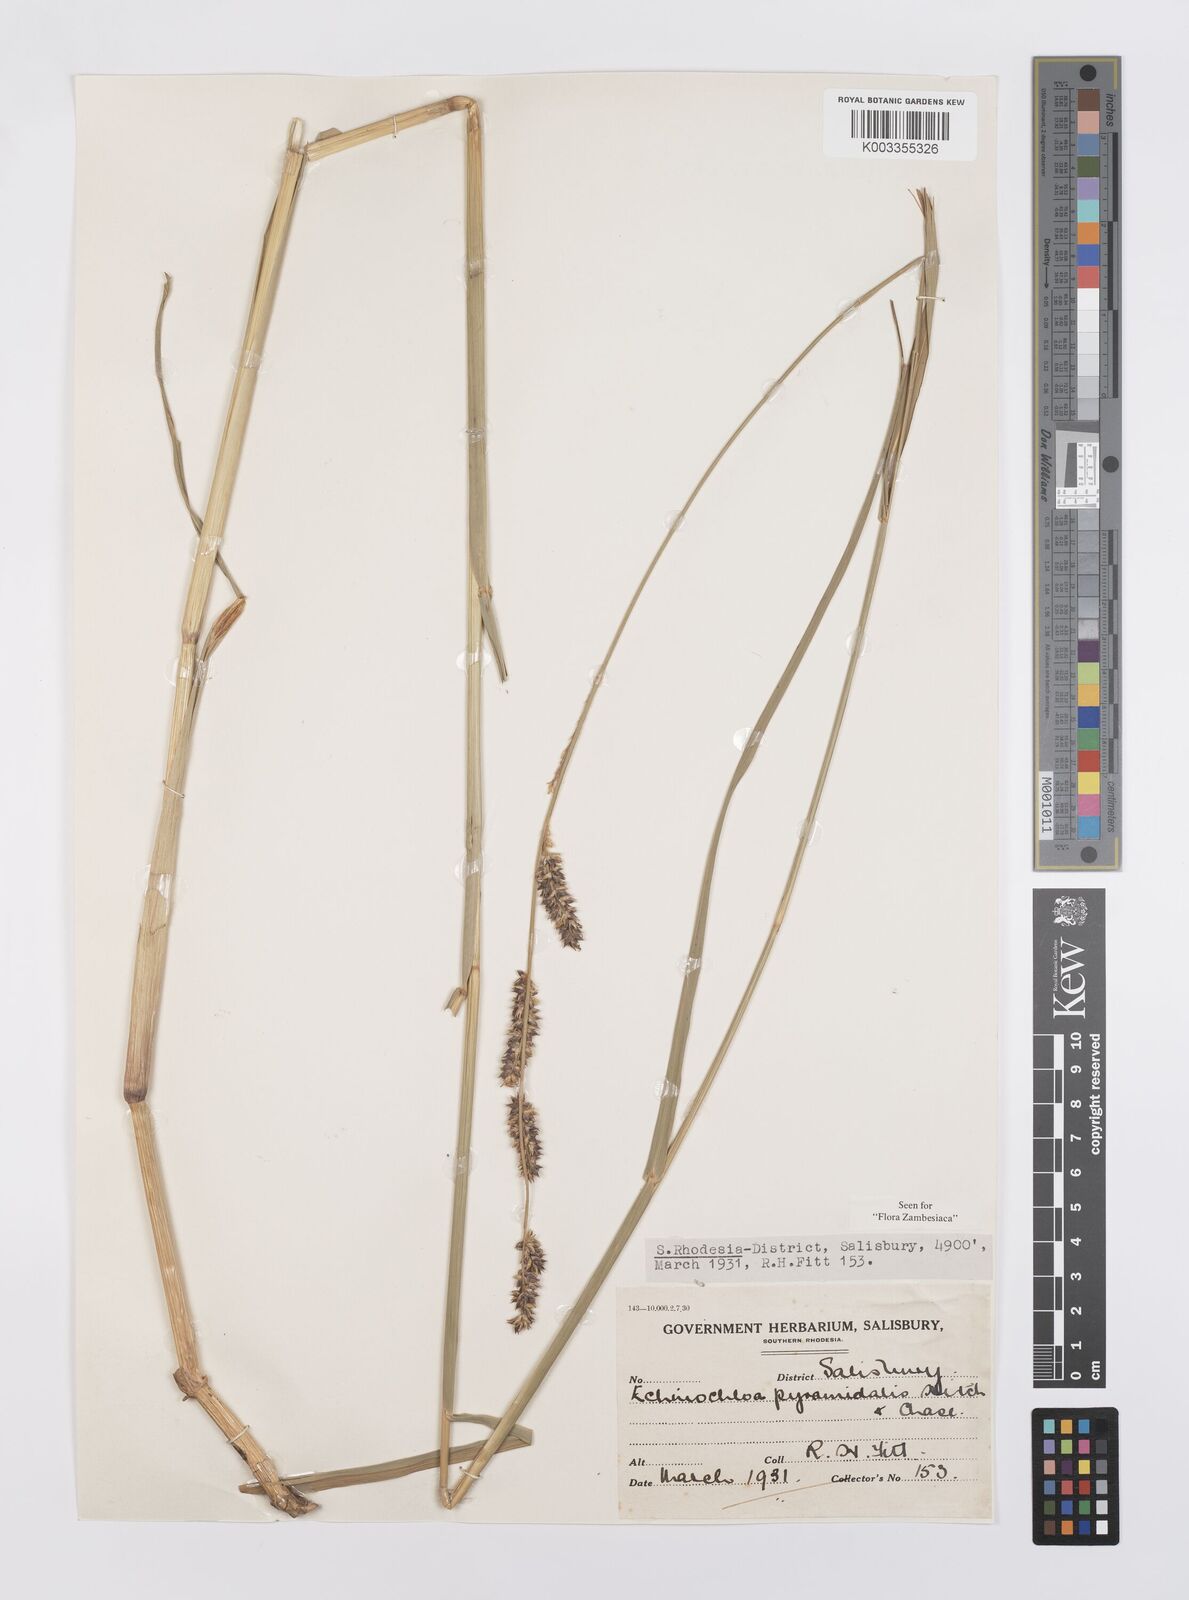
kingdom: Plantae
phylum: Tracheophyta
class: Liliopsida
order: Poales
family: Poaceae
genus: Echinochloa
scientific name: Echinochloa pyramidalis
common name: Antelope grass
